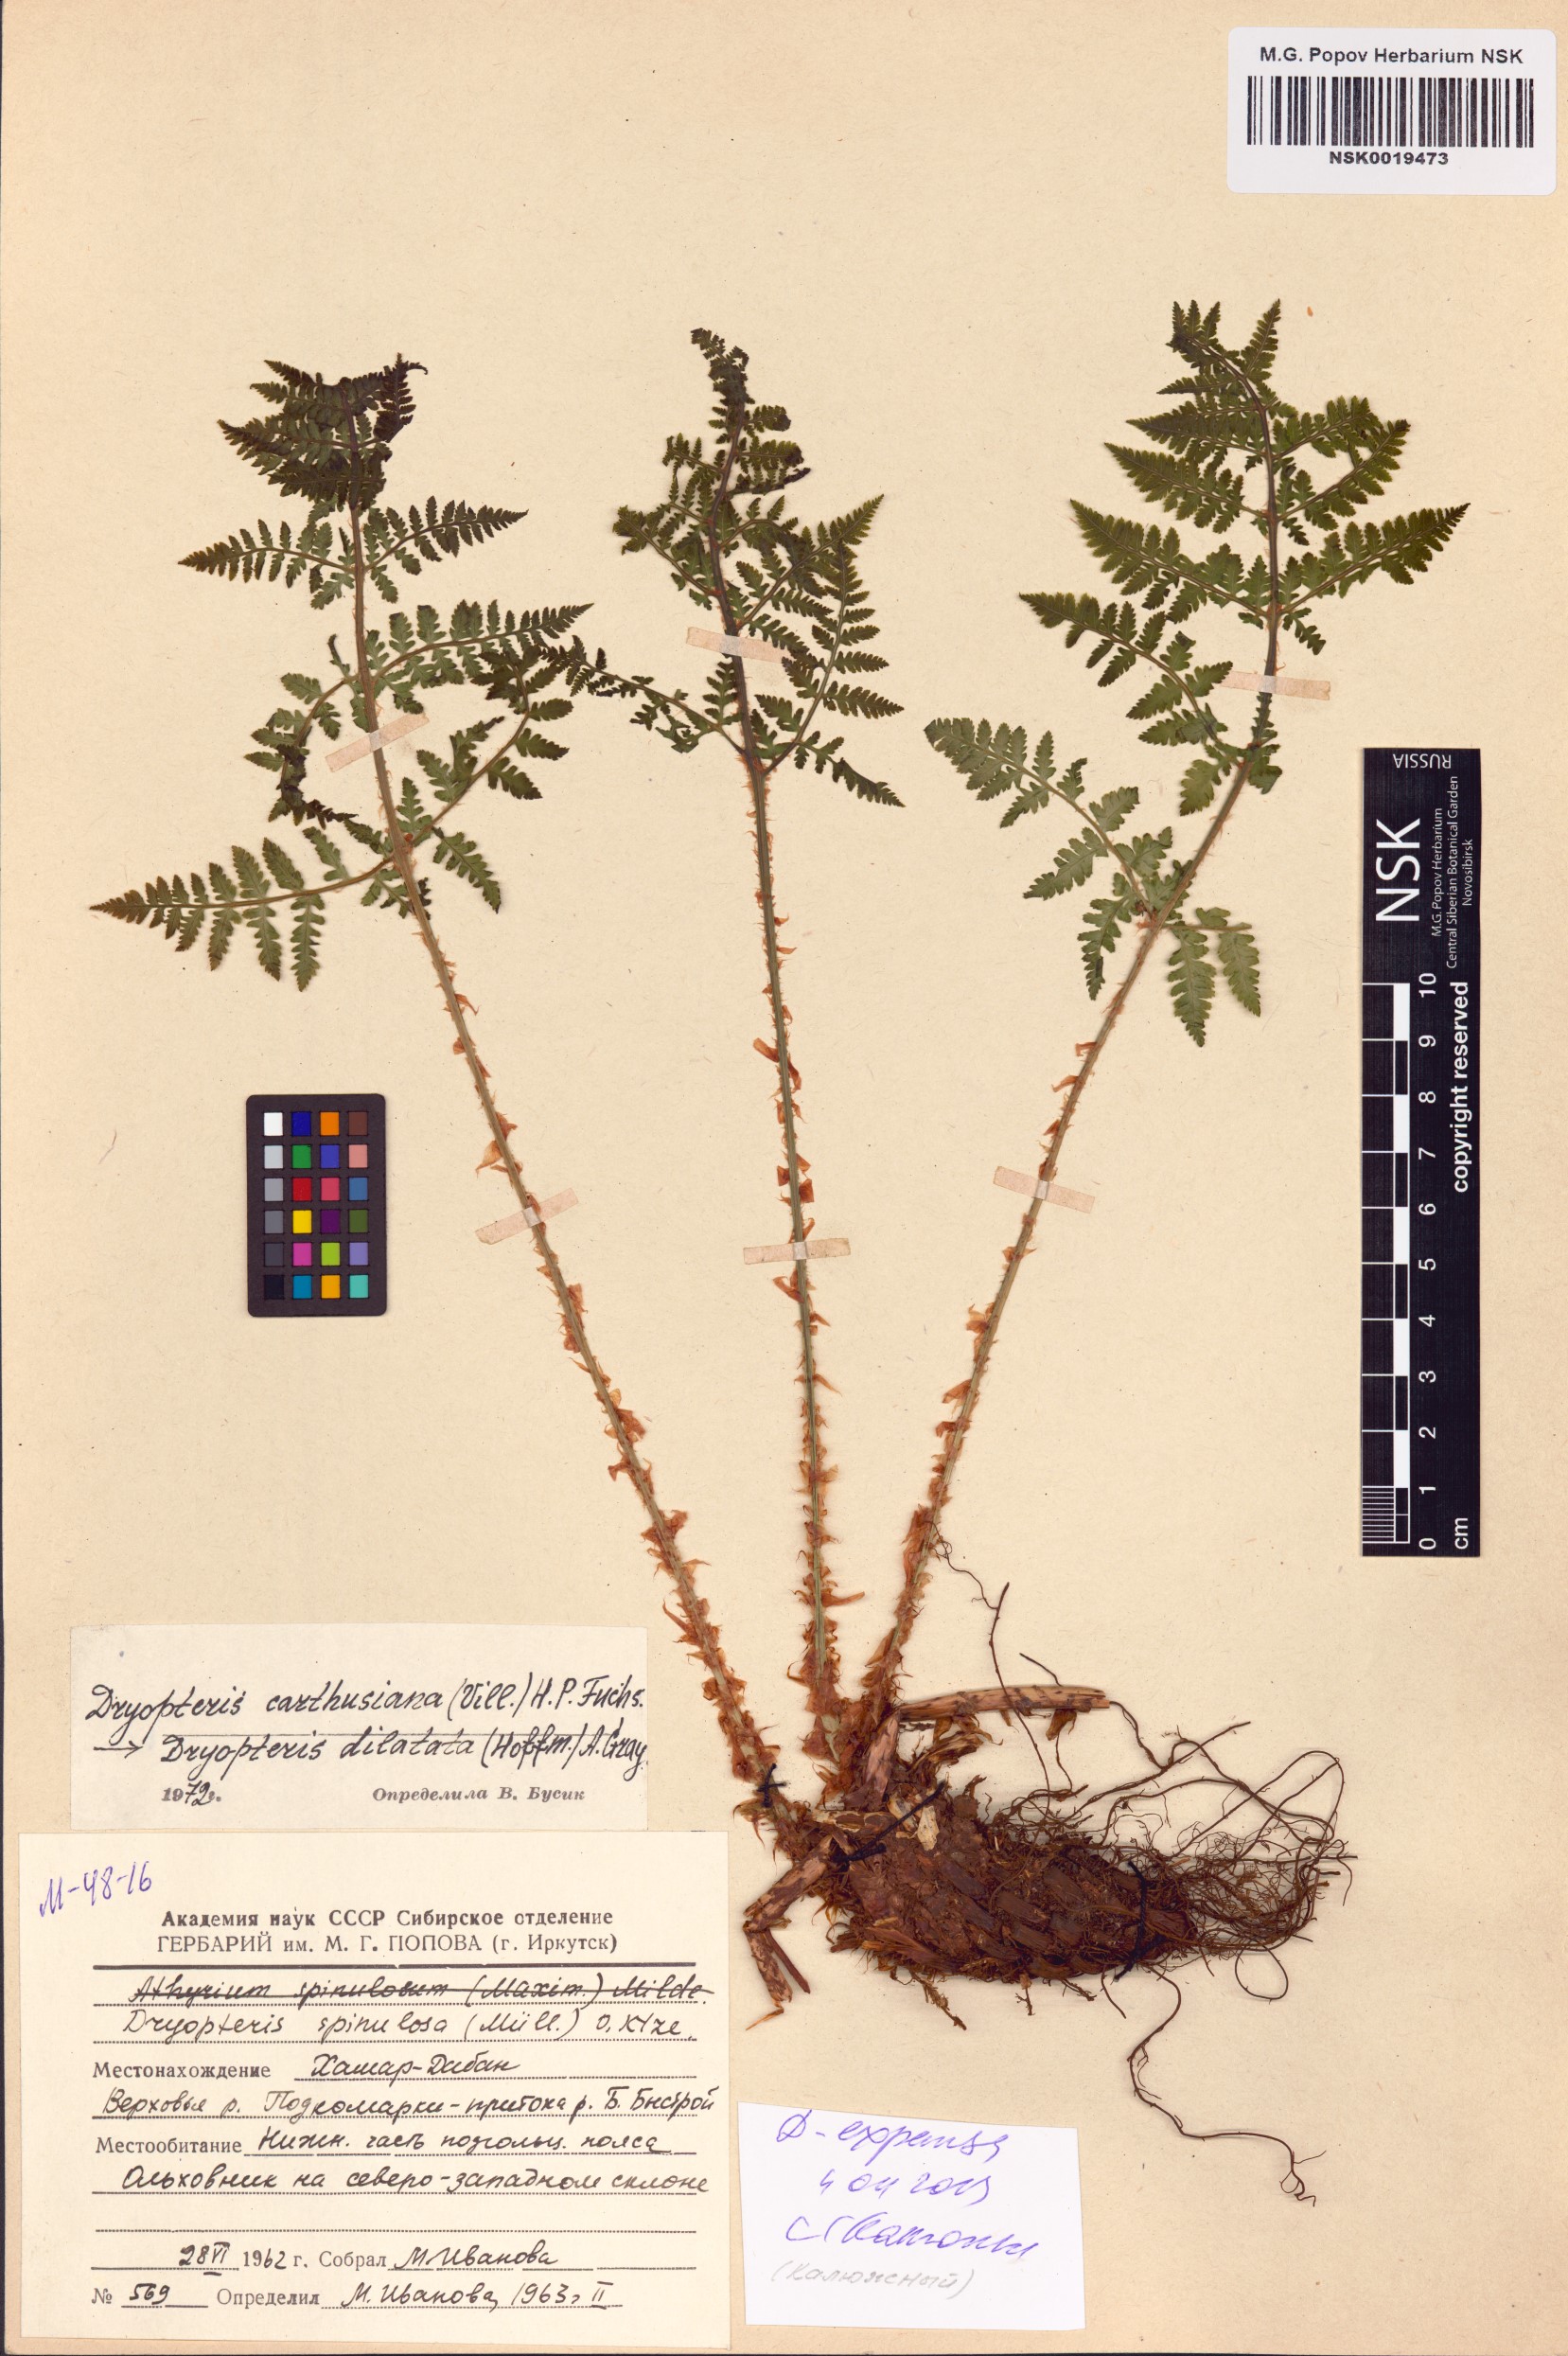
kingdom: Plantae
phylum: Tracheophyta
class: Polypodiopsida
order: Polypodiales
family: Dryopteridaceae
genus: Dryopteris
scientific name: Dryopteris expansa
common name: Northern buckler fern
